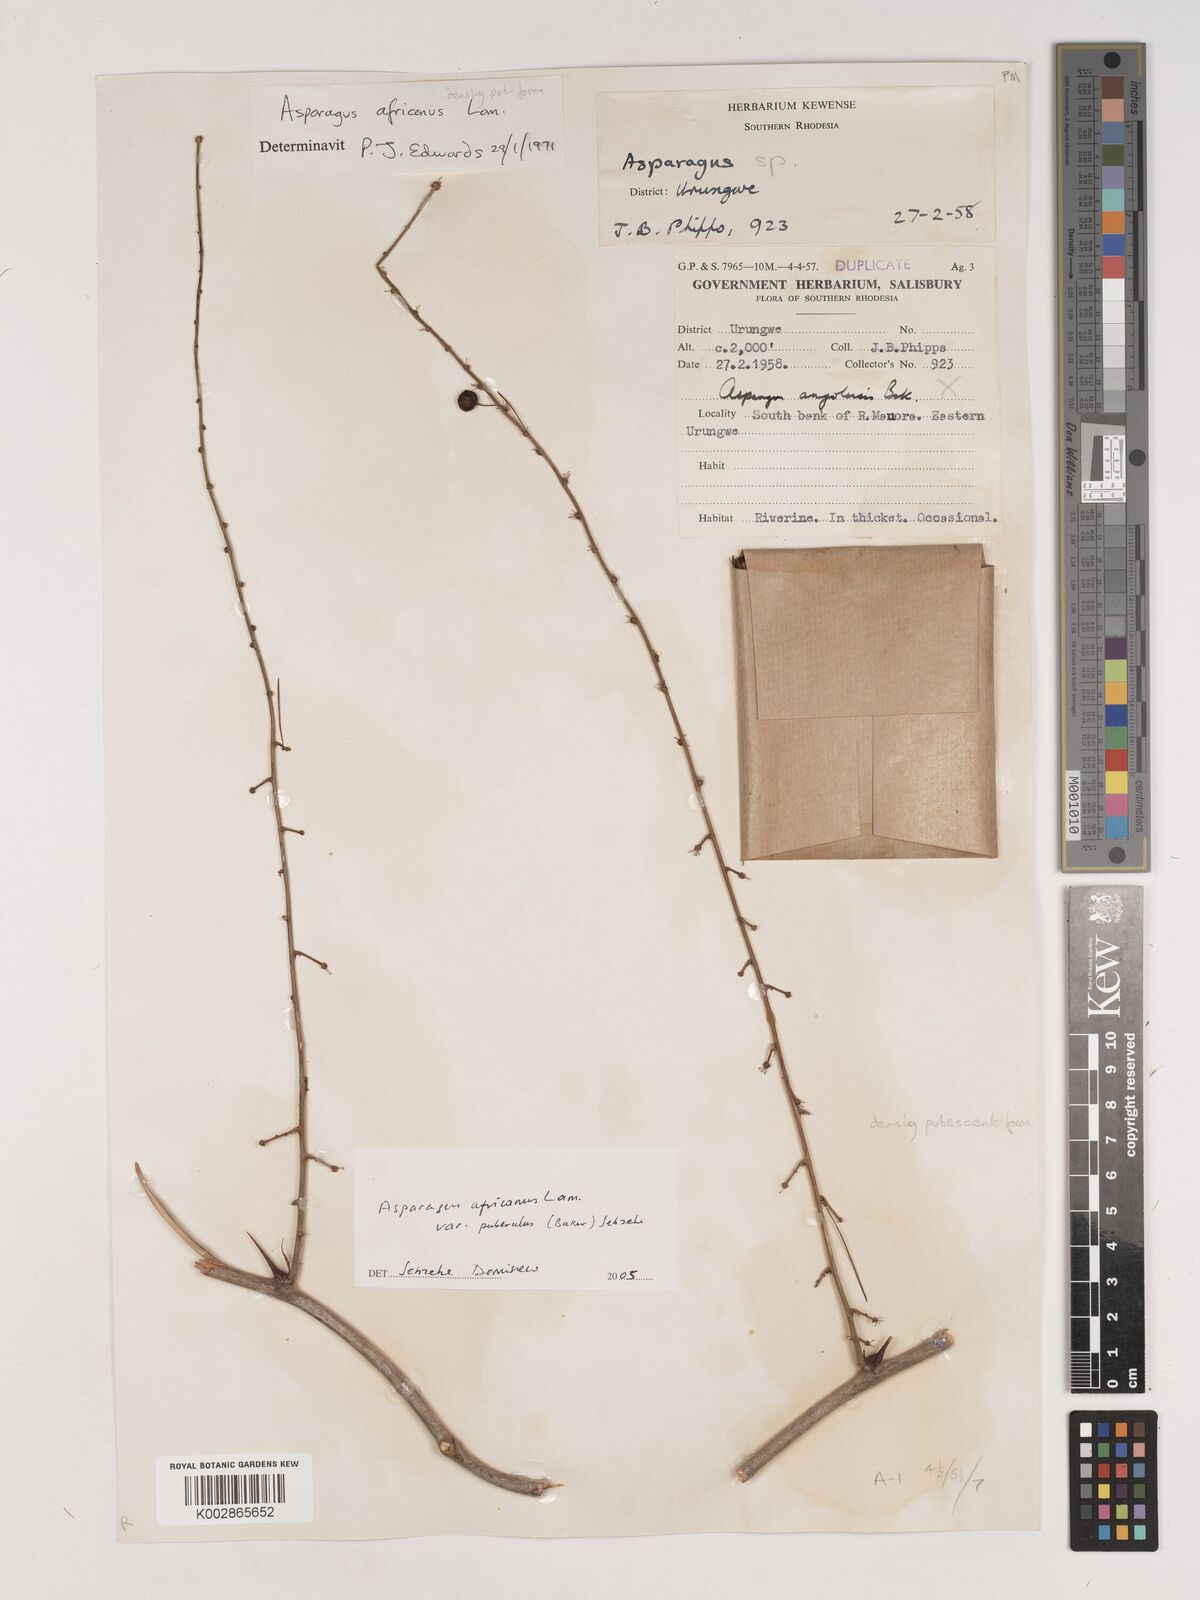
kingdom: Plantae
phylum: Tracheophyta
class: Liliopsida
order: Asparagales
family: Asparagaceae
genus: Asparagus
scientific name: Asparagus africanus
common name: Asparagus-fern
